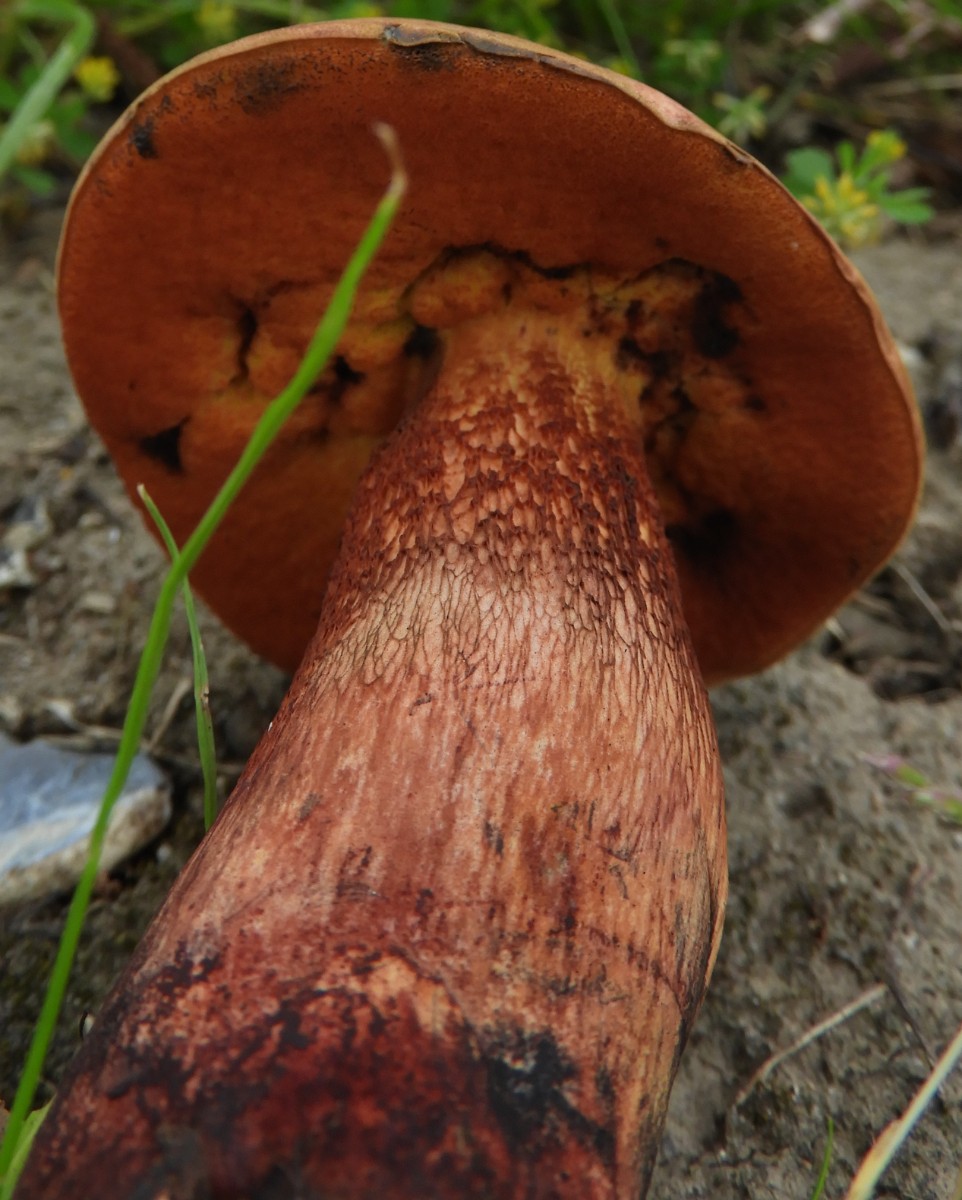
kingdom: Fungi
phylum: Basidiomycota
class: Agaricomycetes
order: Boletales
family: Boletaceae
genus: Suillellus
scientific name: Suillellus luridus
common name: netstokket indigorørhat
